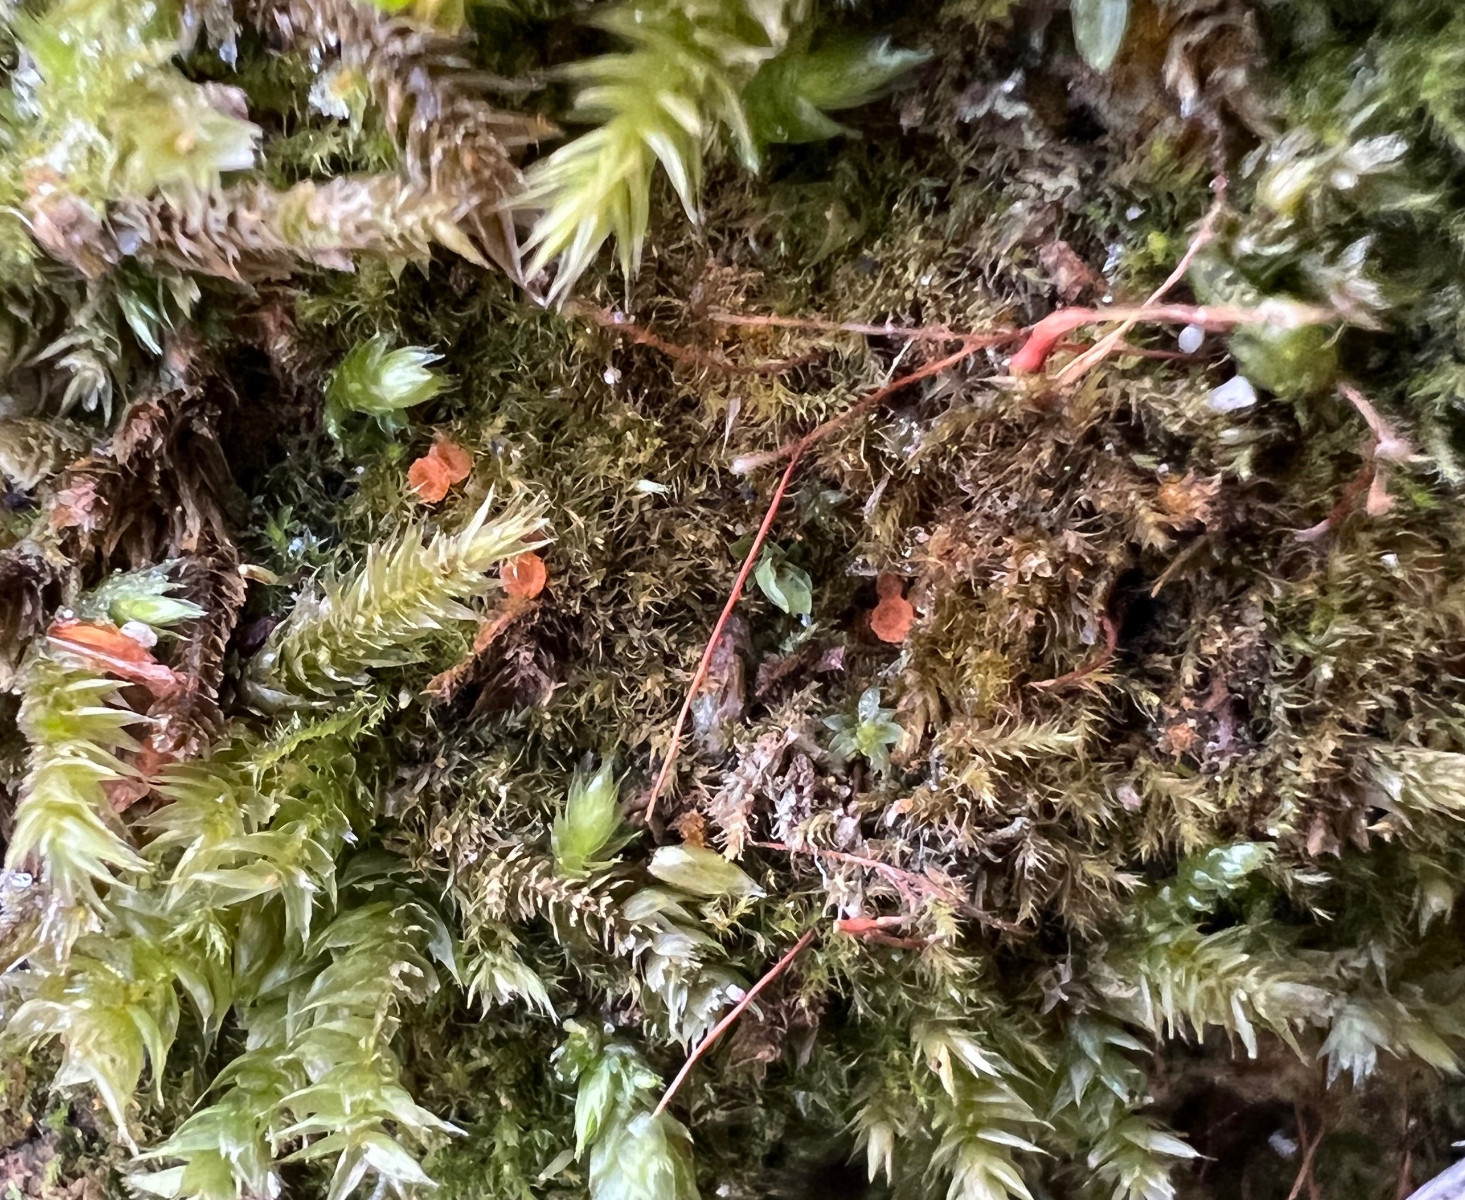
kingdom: Fungi
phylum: Ascomycota
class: Pezizomycetes
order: Pezizales
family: Pyronemataceae
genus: Lamprospora
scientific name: Lamprospora wrightii
